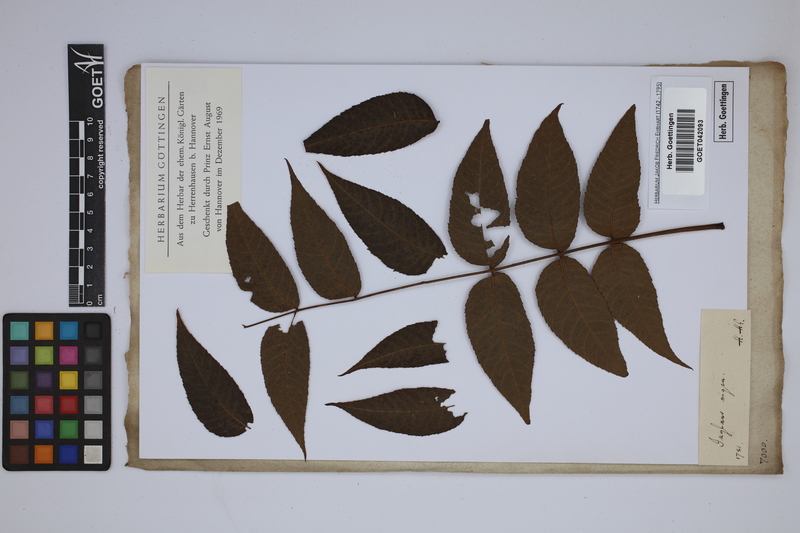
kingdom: Plantae
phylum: Tracheophyta
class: Magnoliopsida
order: Fagales
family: Juglandaceae
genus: Juglans
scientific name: Juglans nigra
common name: Black walnut
